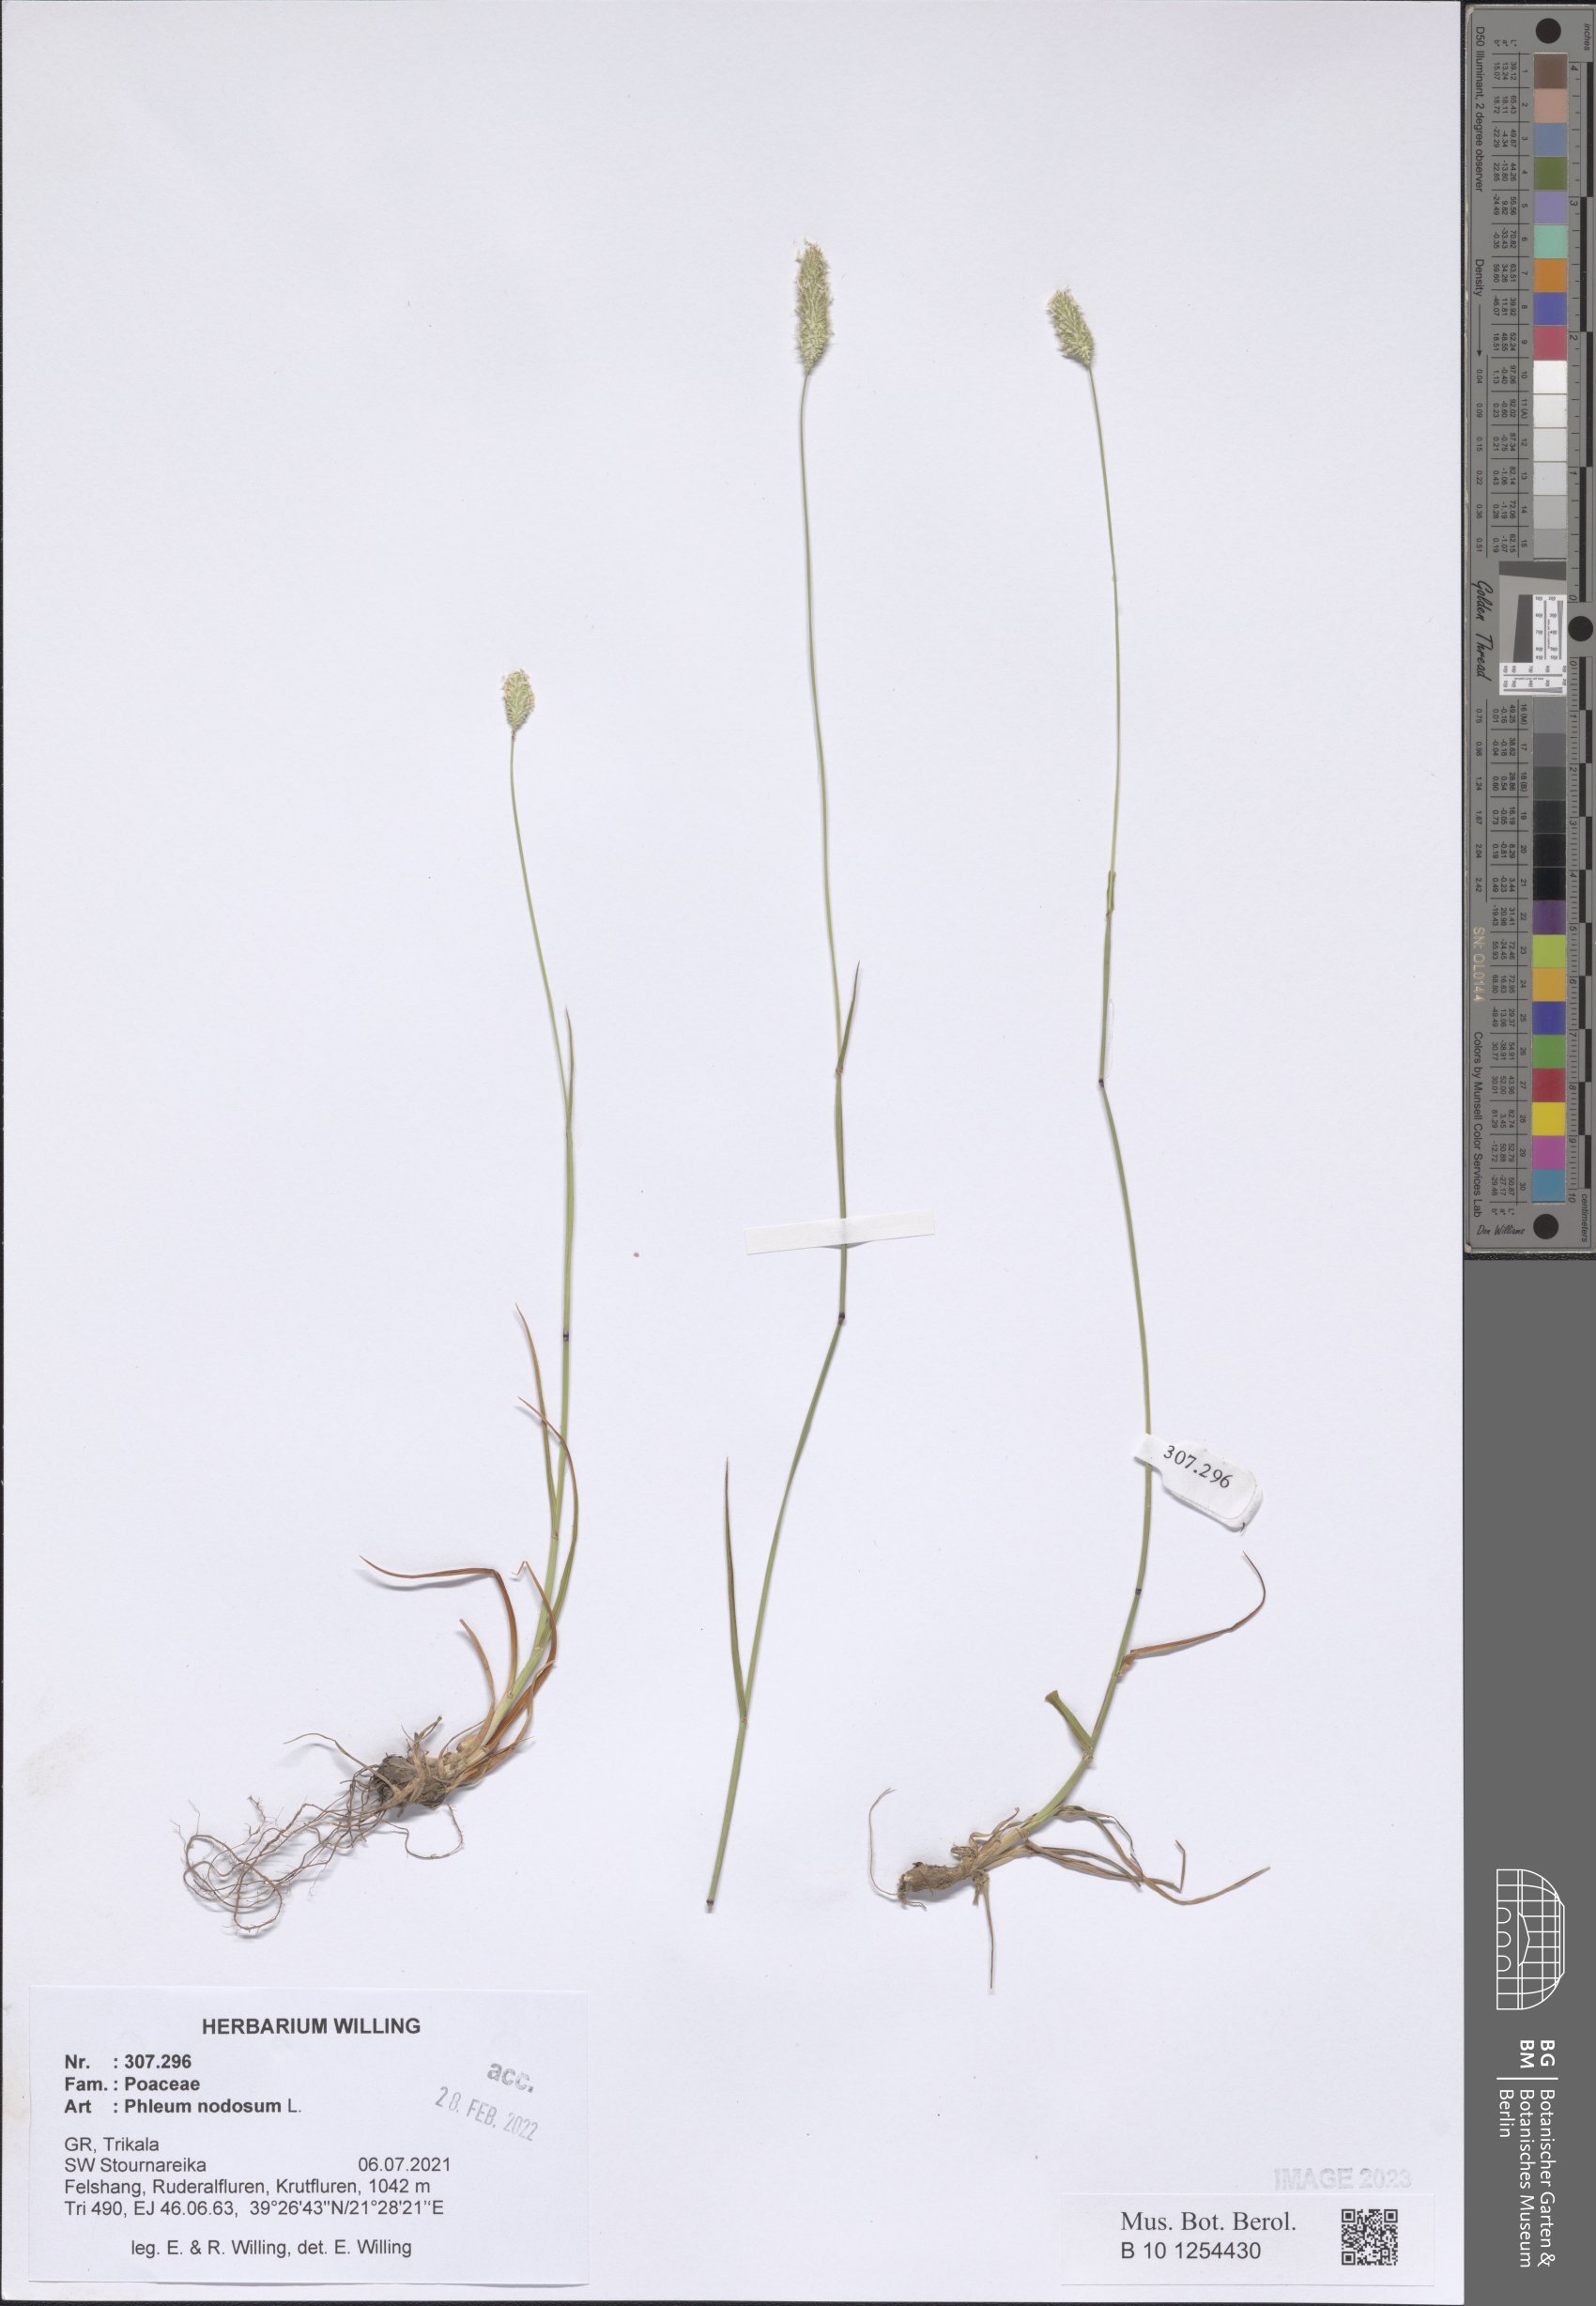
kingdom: Plantae
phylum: Tracheophyta
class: Liliopsida
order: Poales
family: Poaceae
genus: Phleum
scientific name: Phleum pratense
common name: Timothy grass
